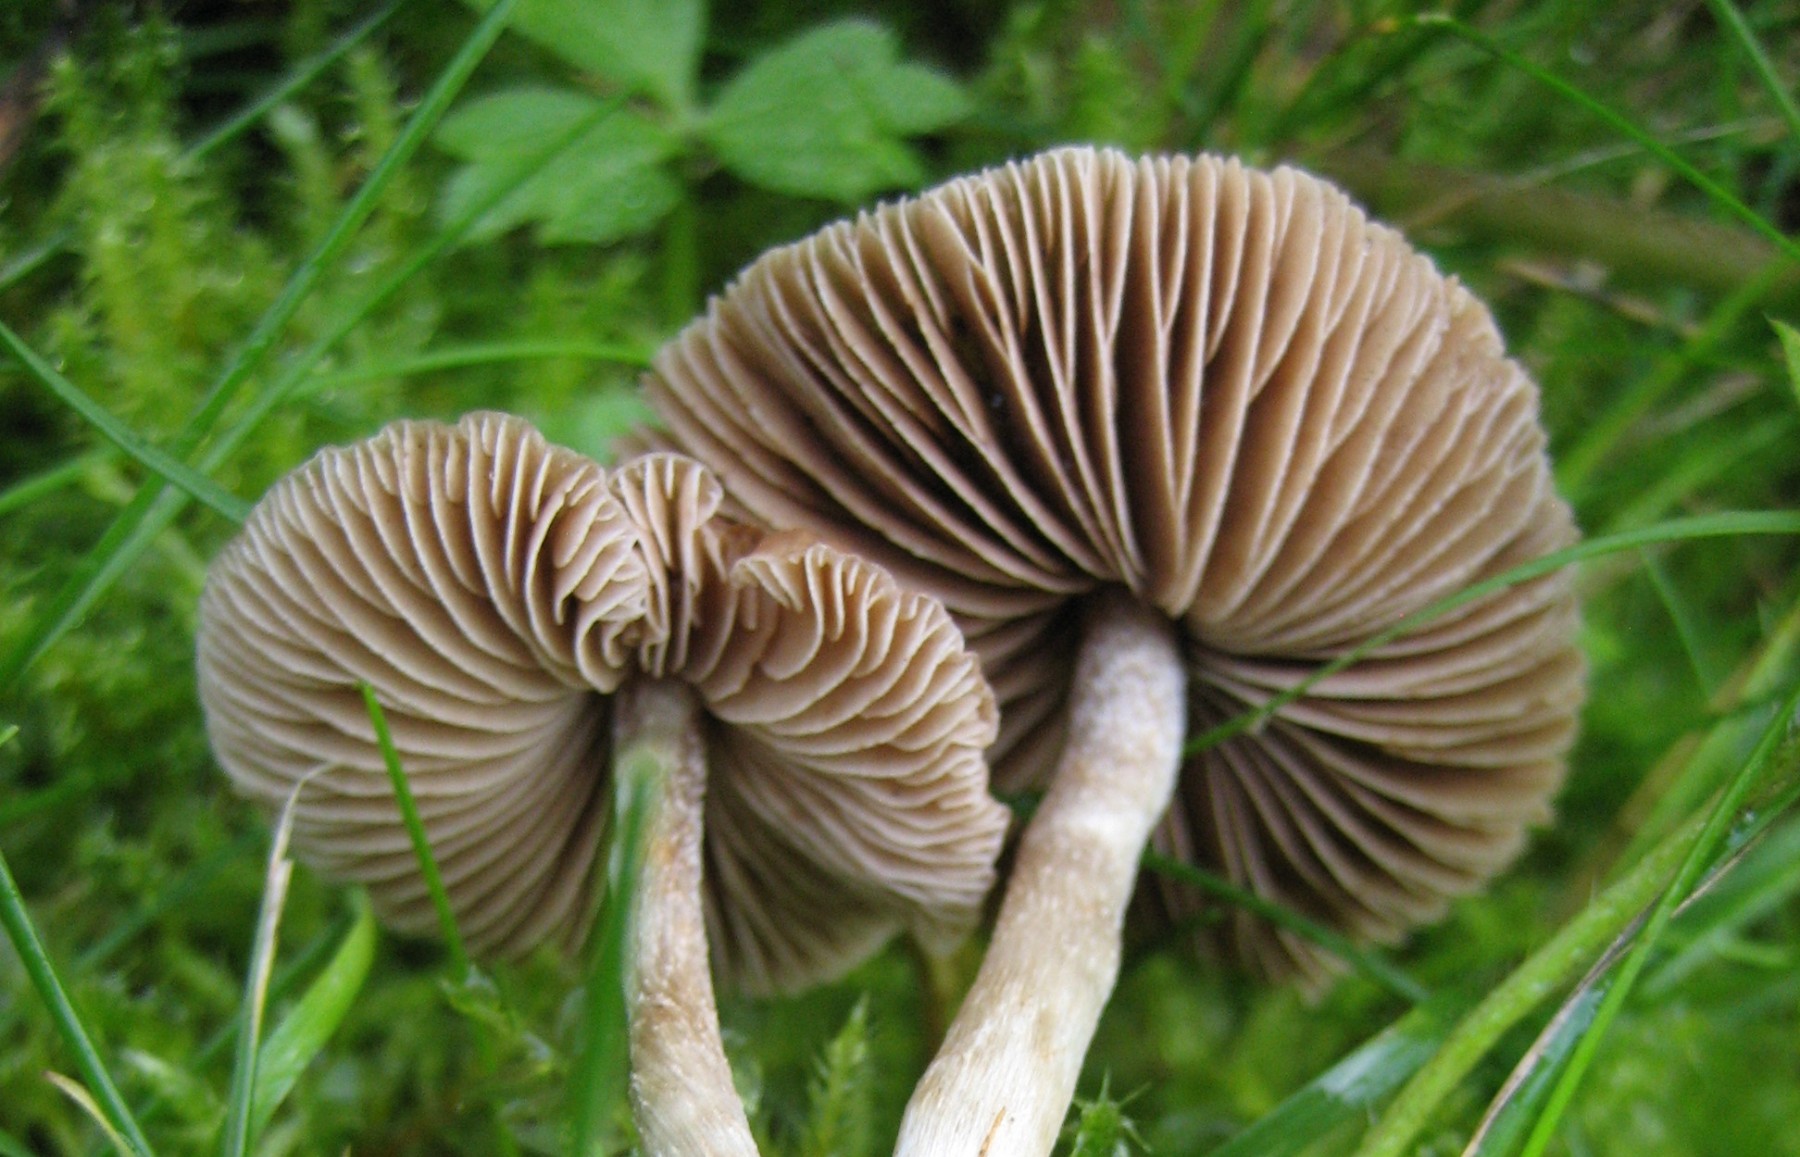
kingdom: Fungi
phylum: Basidiomycota
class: Agaricomycetes
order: Agaricales
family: Cortinariaceae
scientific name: Cortinariaceae
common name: slørhatfamilien
